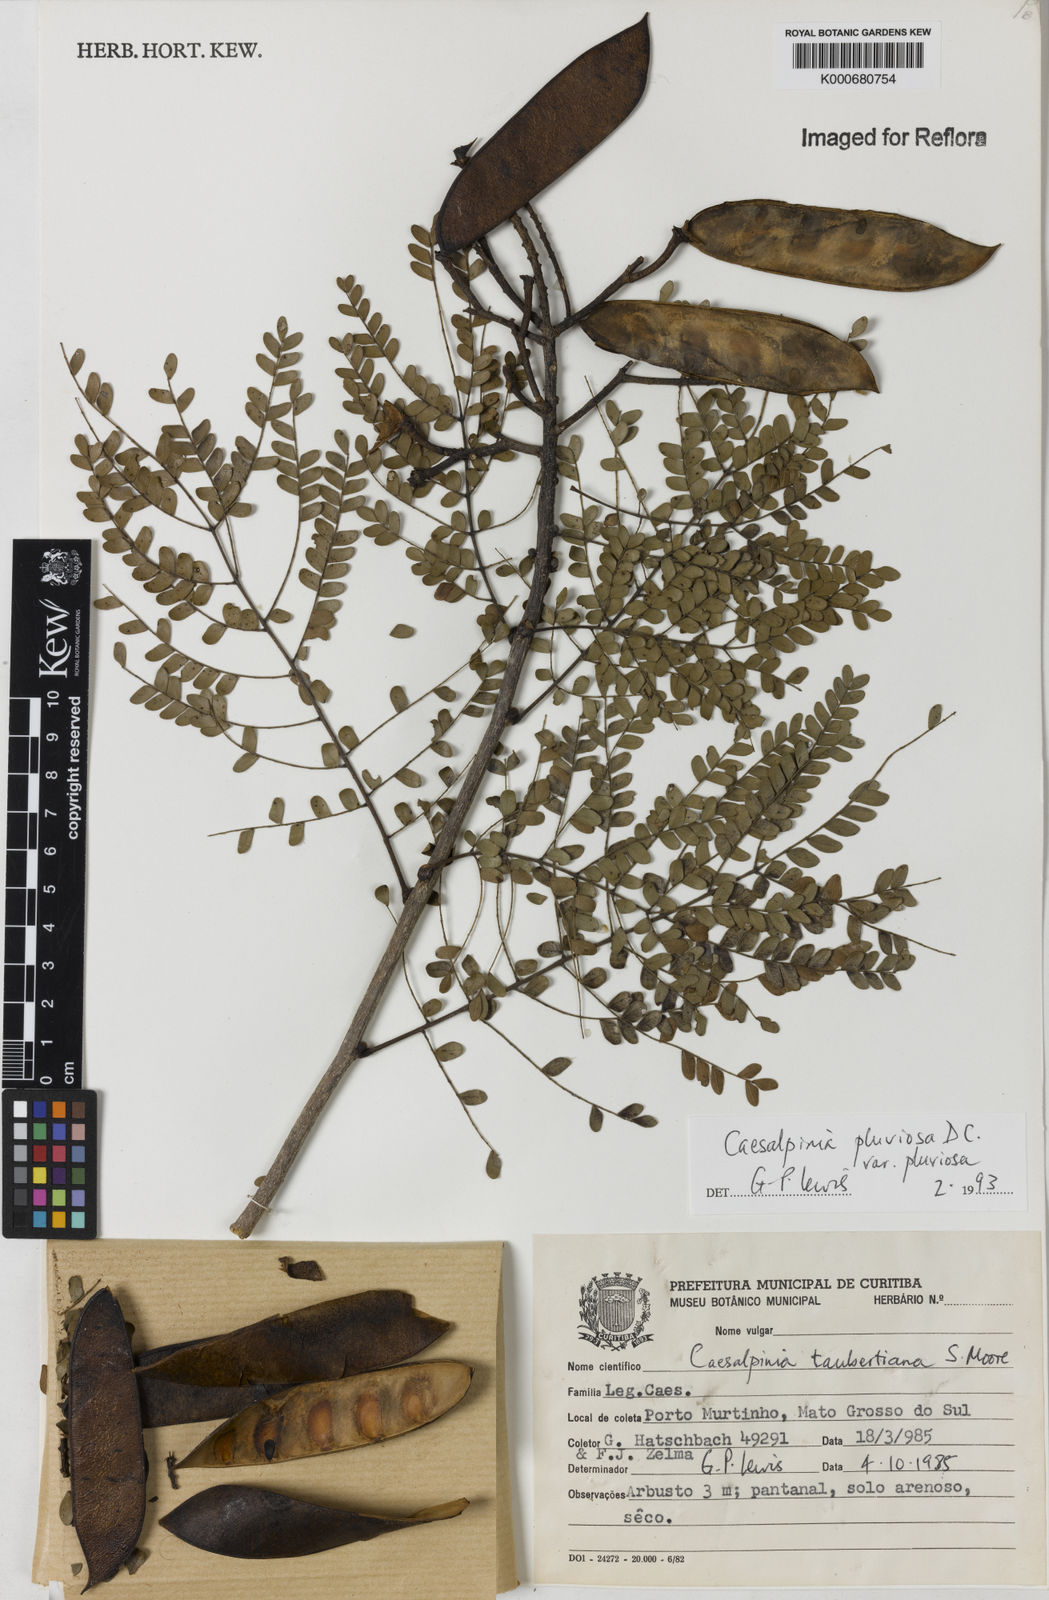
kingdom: Plantae
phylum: Tracheophyta
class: Magnoliopsida
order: Fabales
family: Fabaceae
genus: Cenostigma
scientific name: Cenostigma pluviosum
